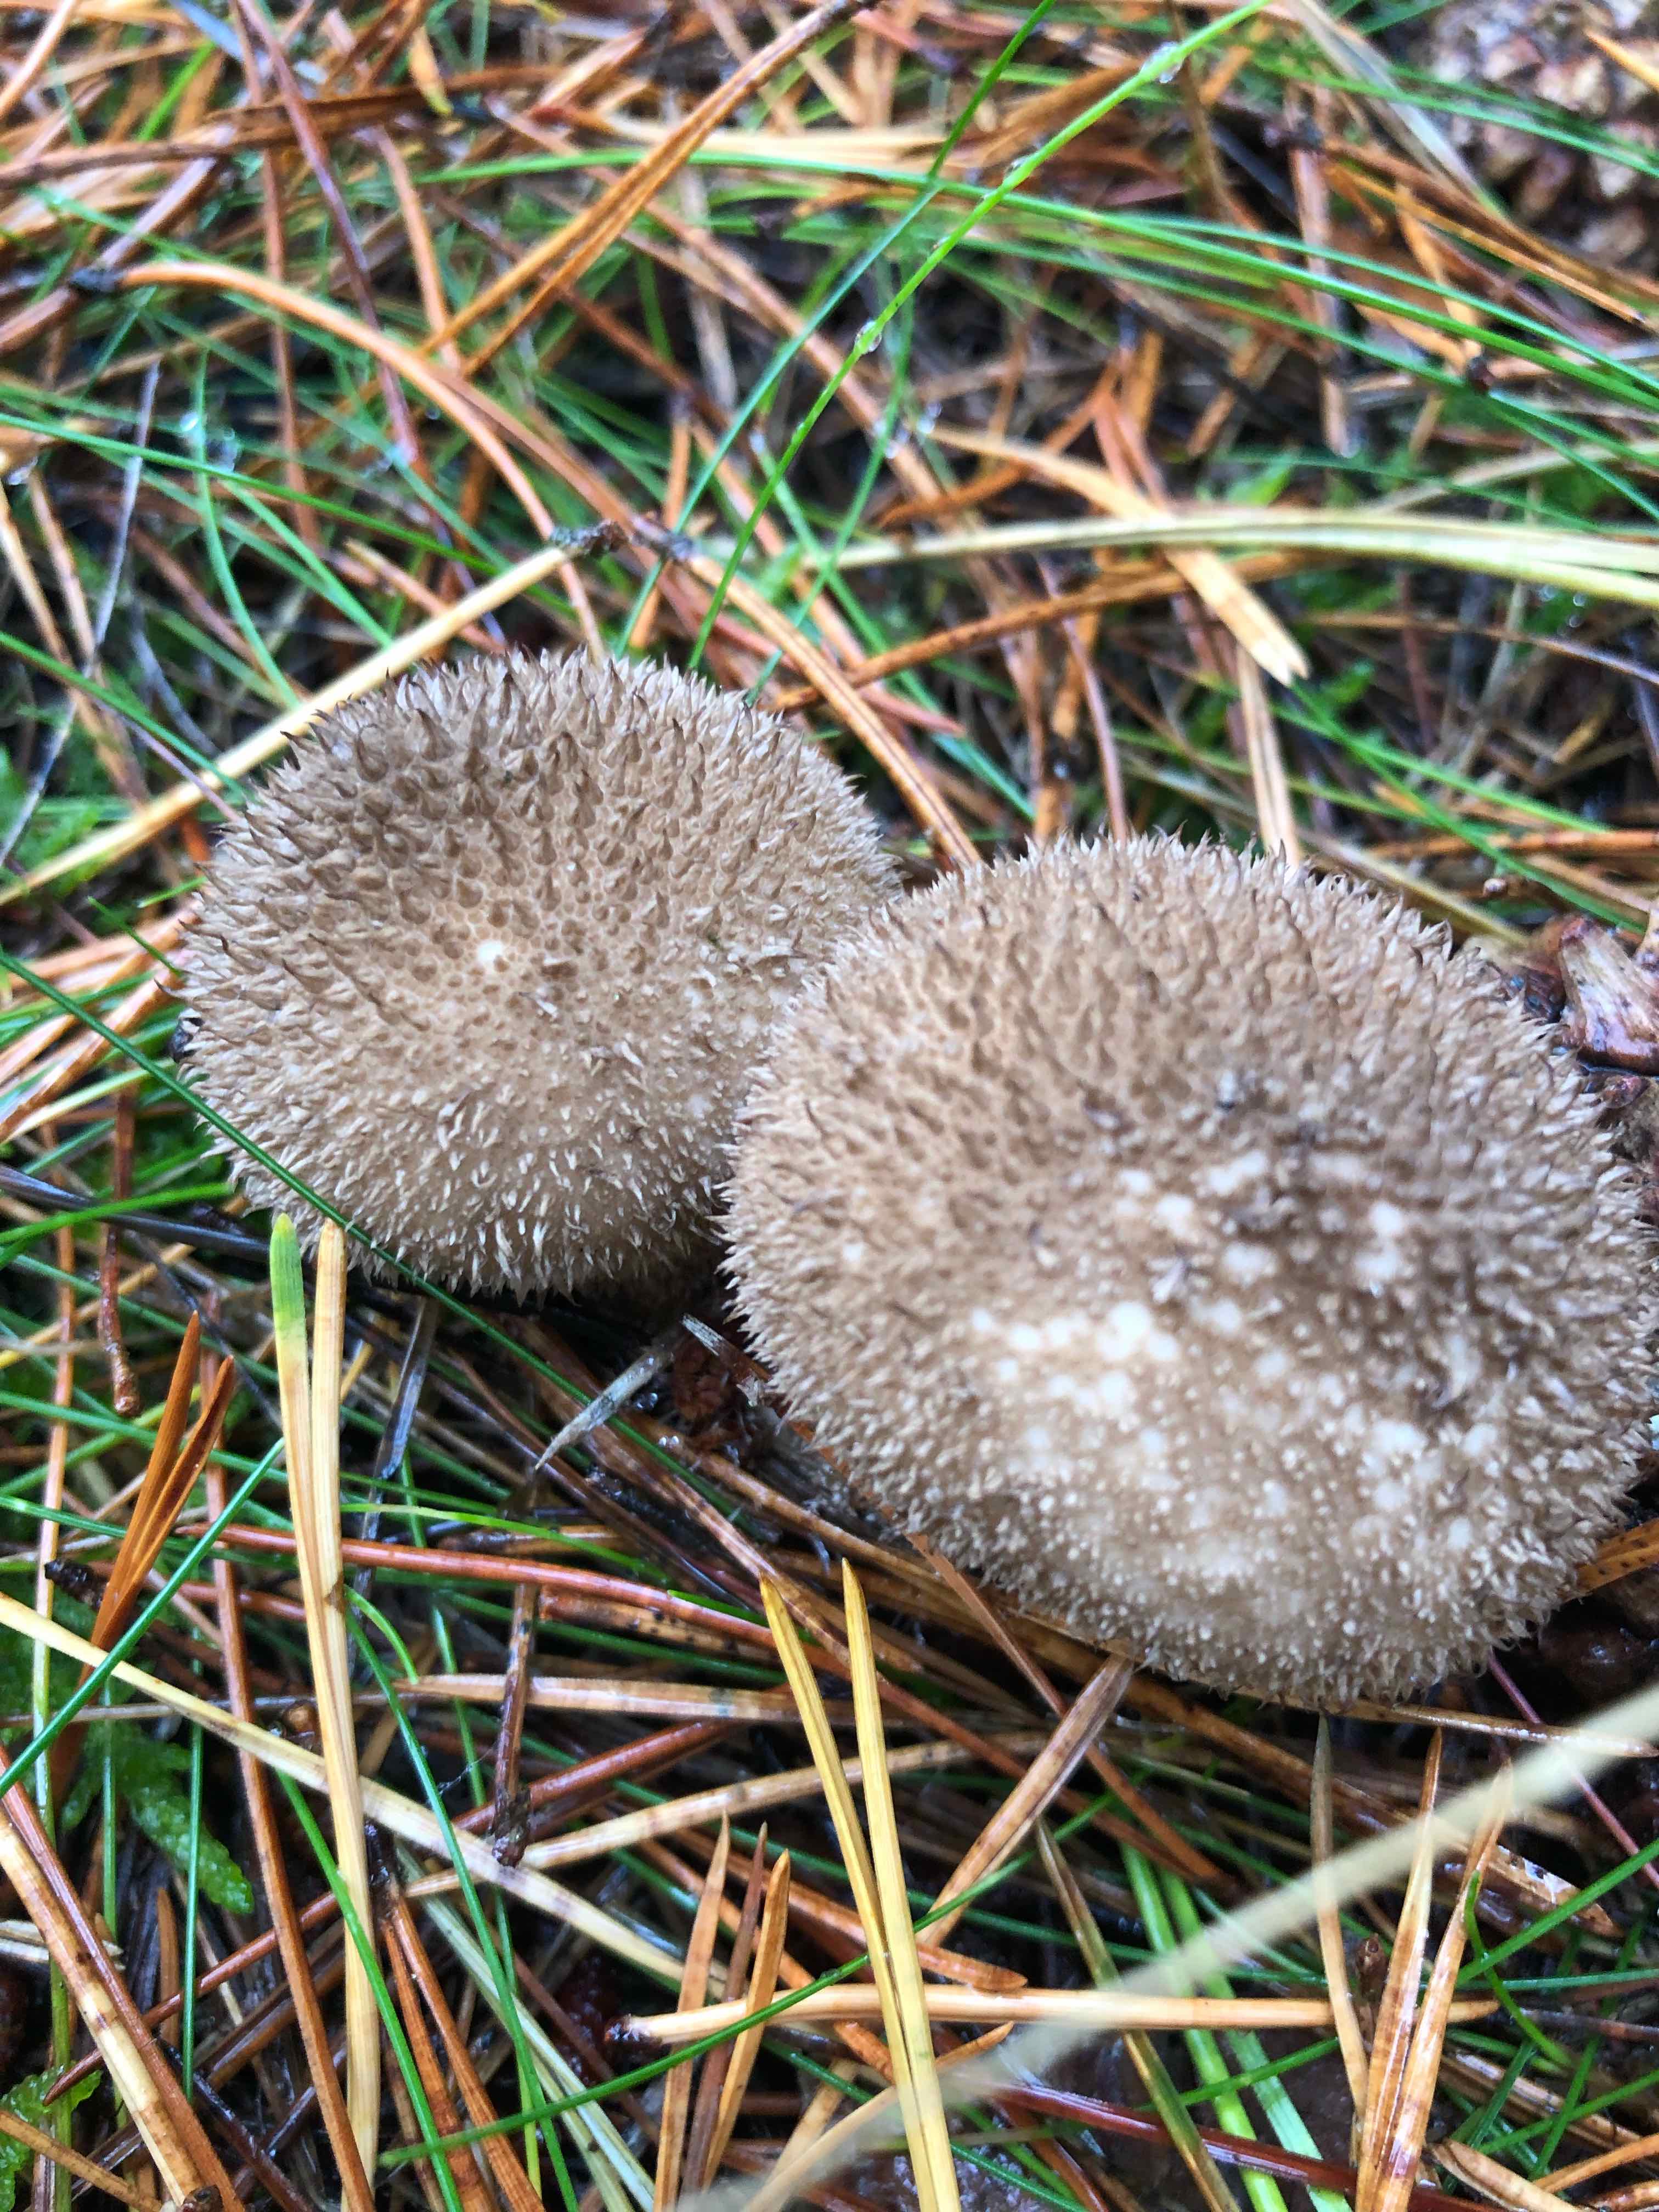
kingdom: Fungi
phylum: Basidiomycota
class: Agaricomycetes
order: Agaricales
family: Lycoperdaceae
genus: Lycoperdon
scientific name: Lycoperdon nigrescens
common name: sortagtig støvbold
